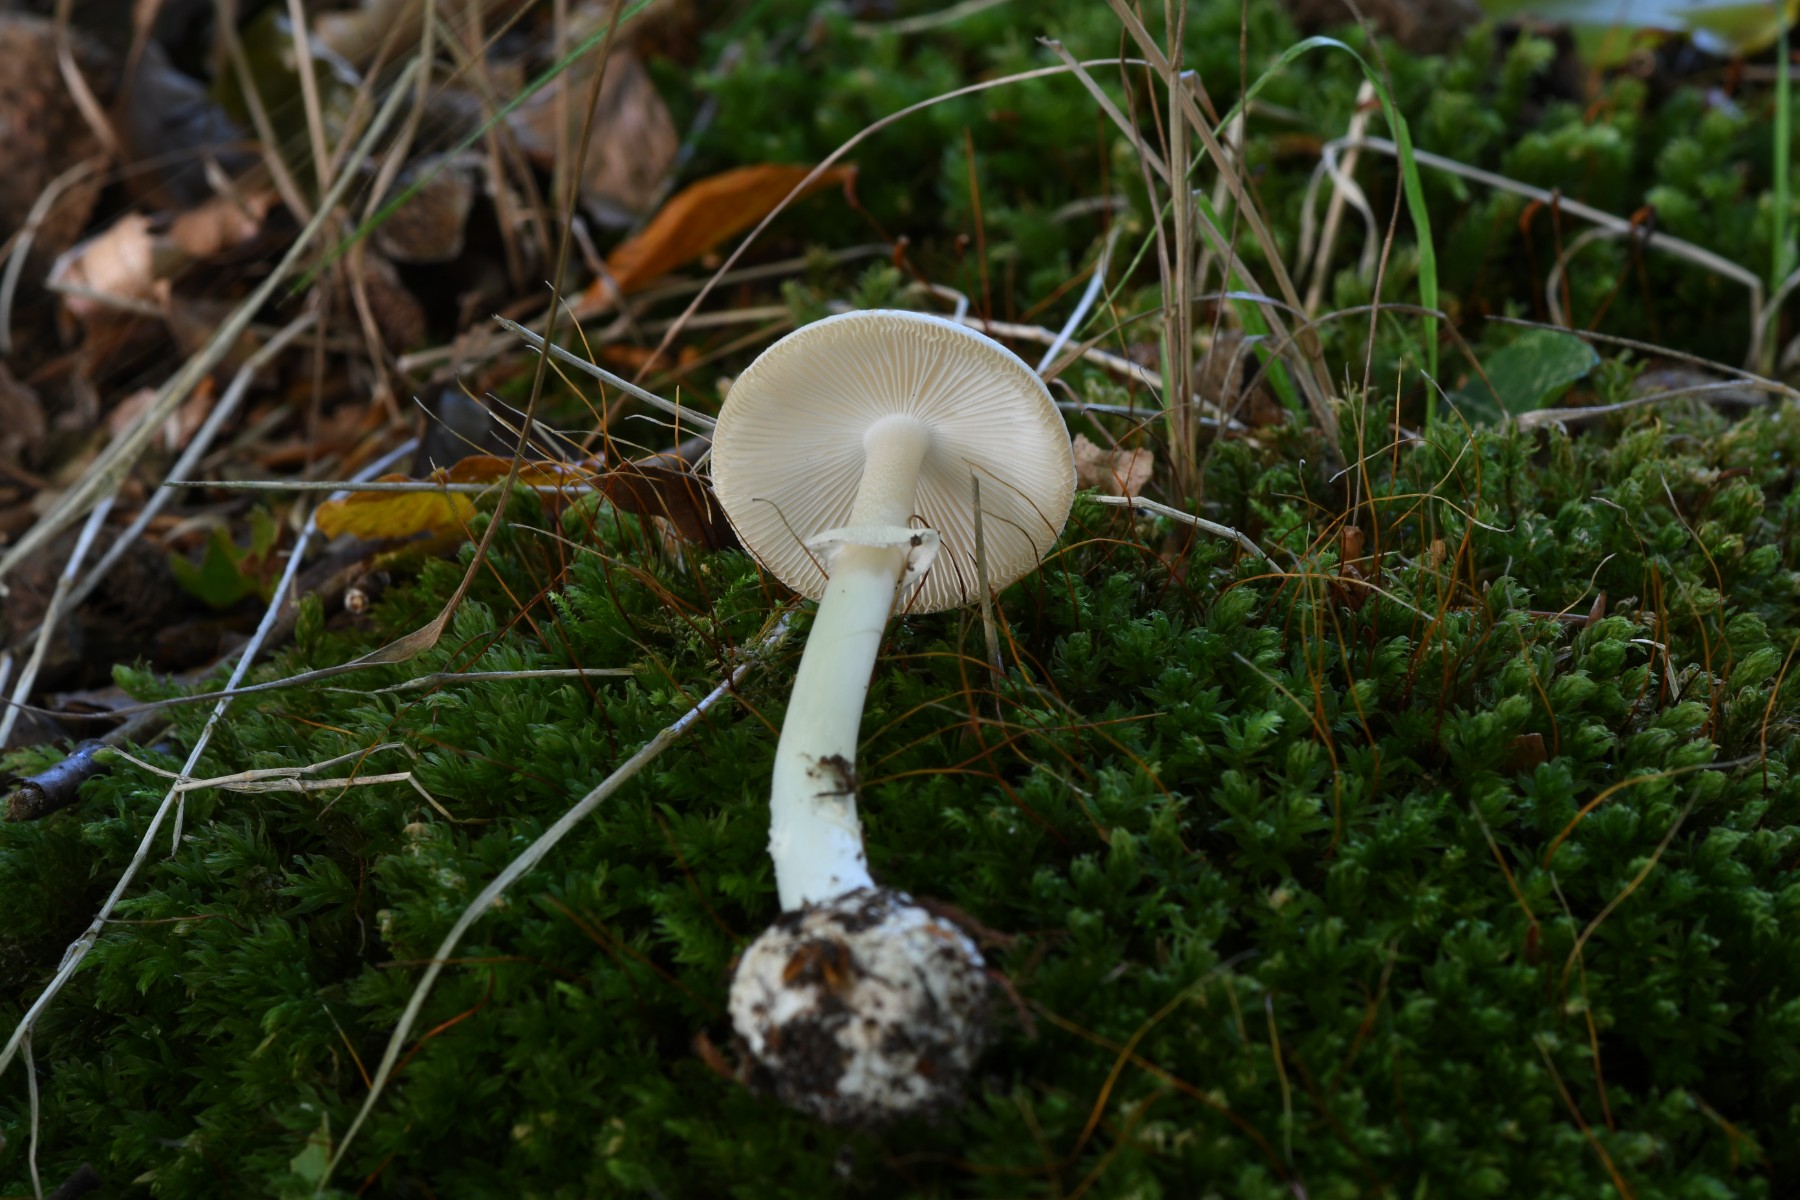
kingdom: Fungi
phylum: Basidiomycota
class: Agaricomycetes
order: Agaricales
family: Amanitaceae
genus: Amanita
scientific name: Amanita citrina
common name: kugleknoldet fluesvamp
